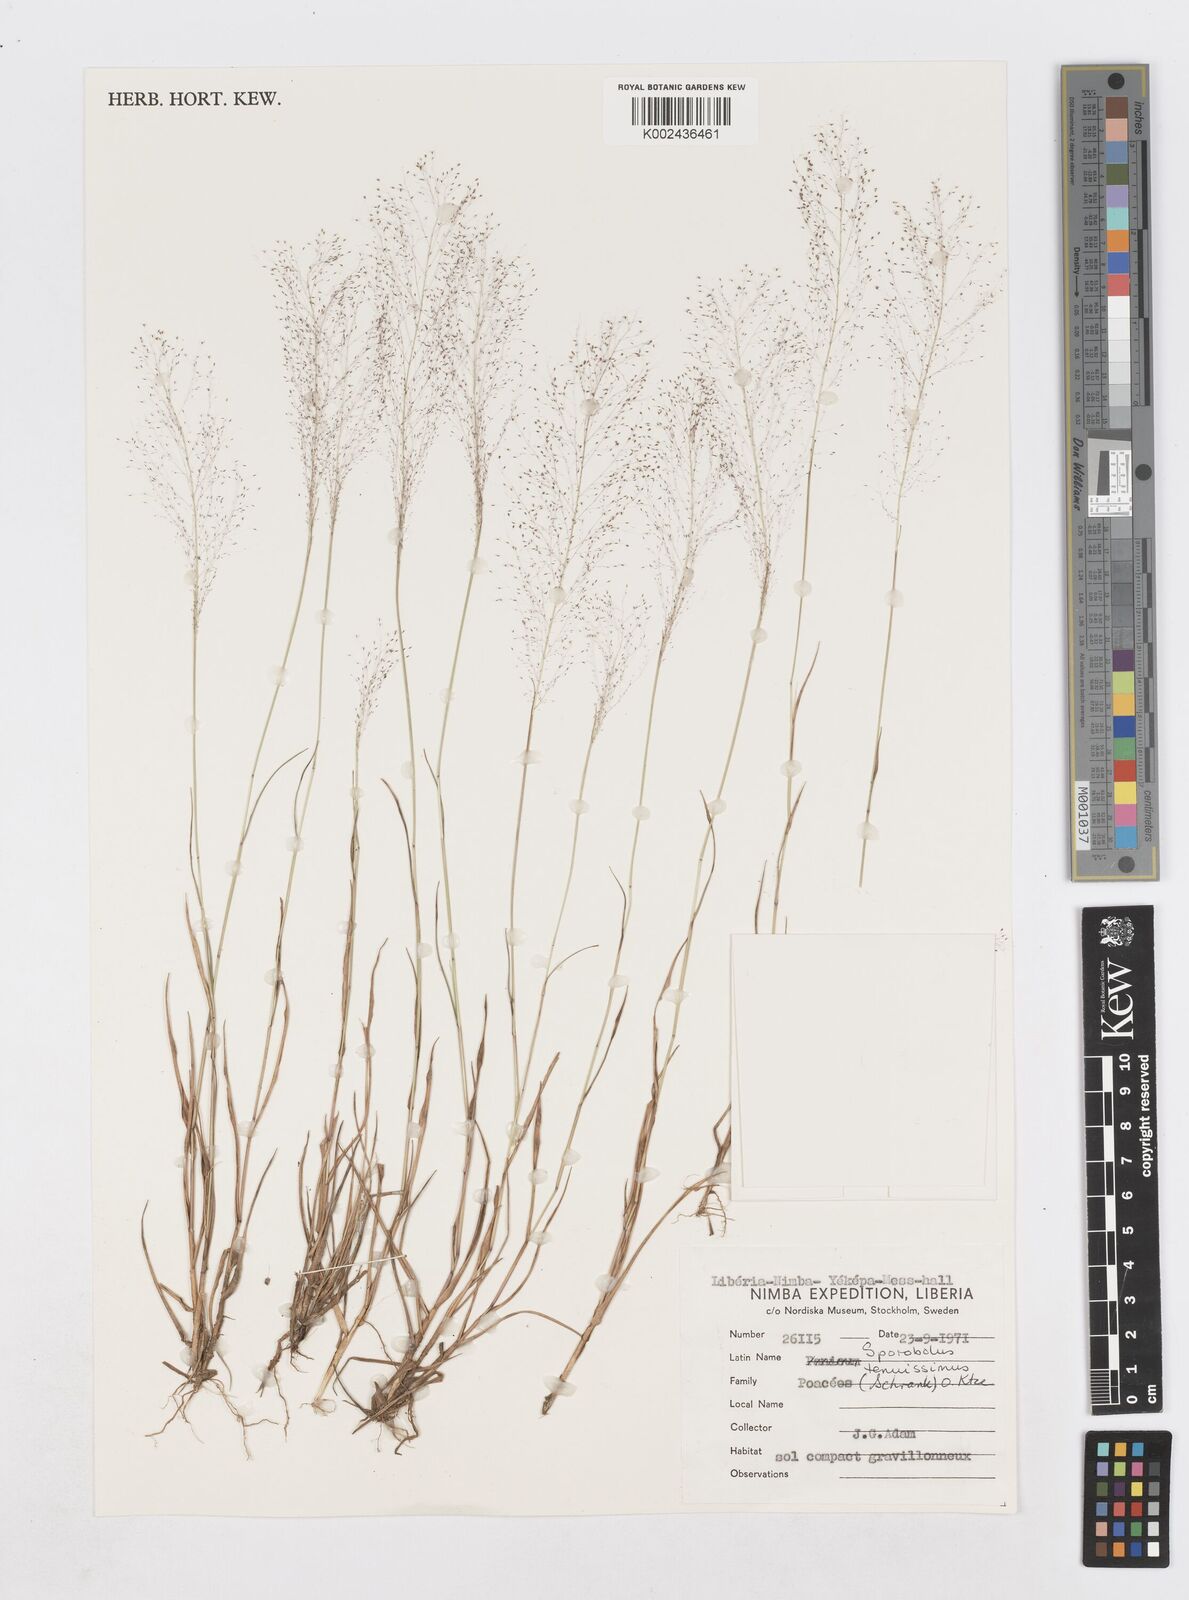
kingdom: Plantae
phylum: Tracheophyta
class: Liliopsida
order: Poales
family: Poaceae
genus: Sporobolus
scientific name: Sporobolus pectinellus
